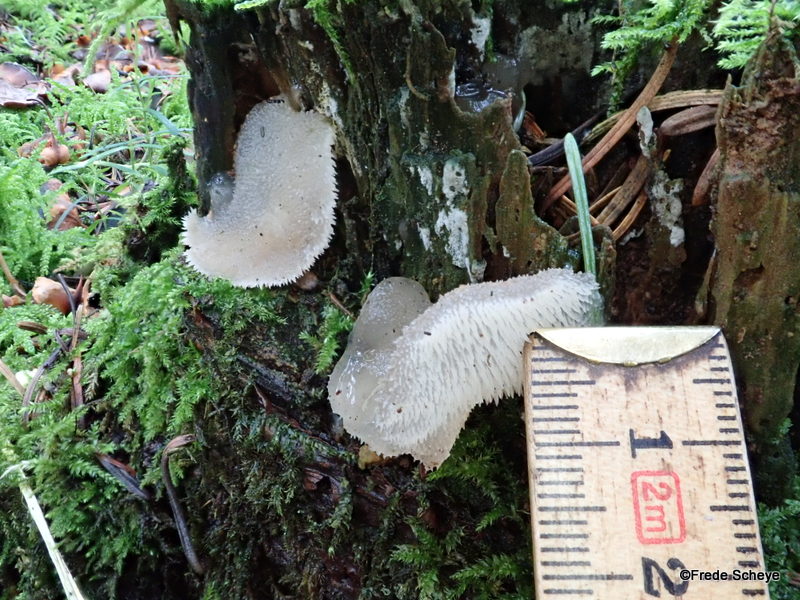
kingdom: Fungi
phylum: Basidiomycota
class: Agaricomycetes
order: Auriculariales
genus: Pseudohydnum
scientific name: Pseudohydnum gelatinosum
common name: bævretand
